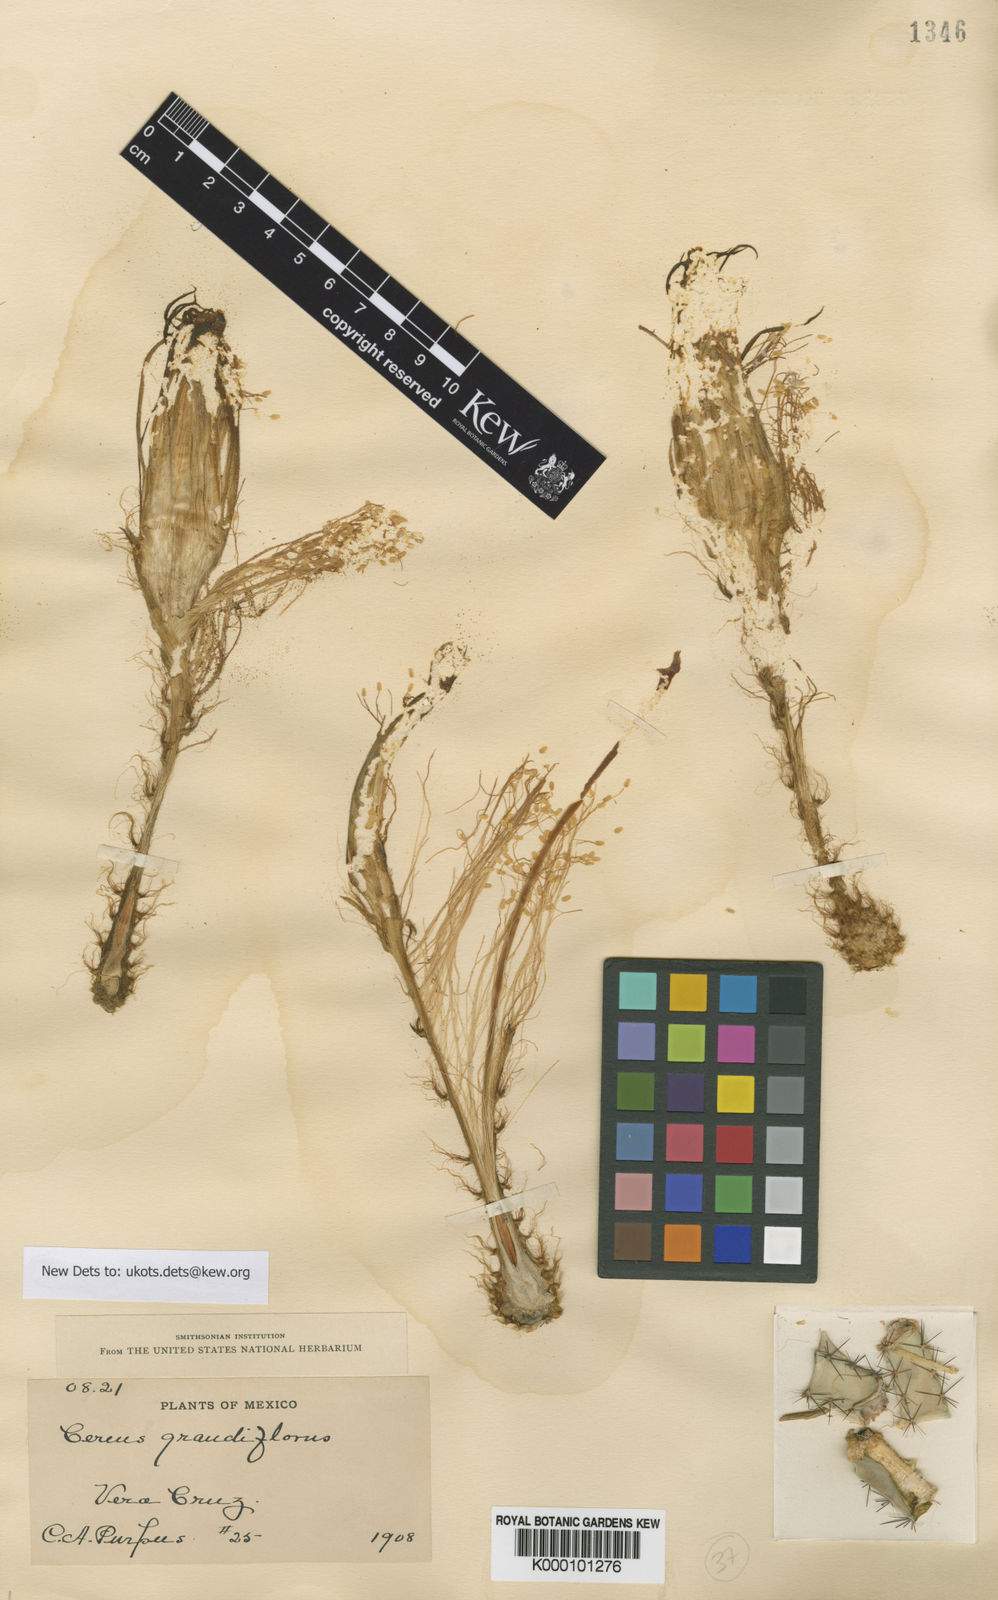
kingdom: Plantae
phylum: Tracheophyta
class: Magnoliopsida
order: Caryophyllales
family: Cactaceae
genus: Selenicereus
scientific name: Selenicereus grandiflorus
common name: Queen of the night
